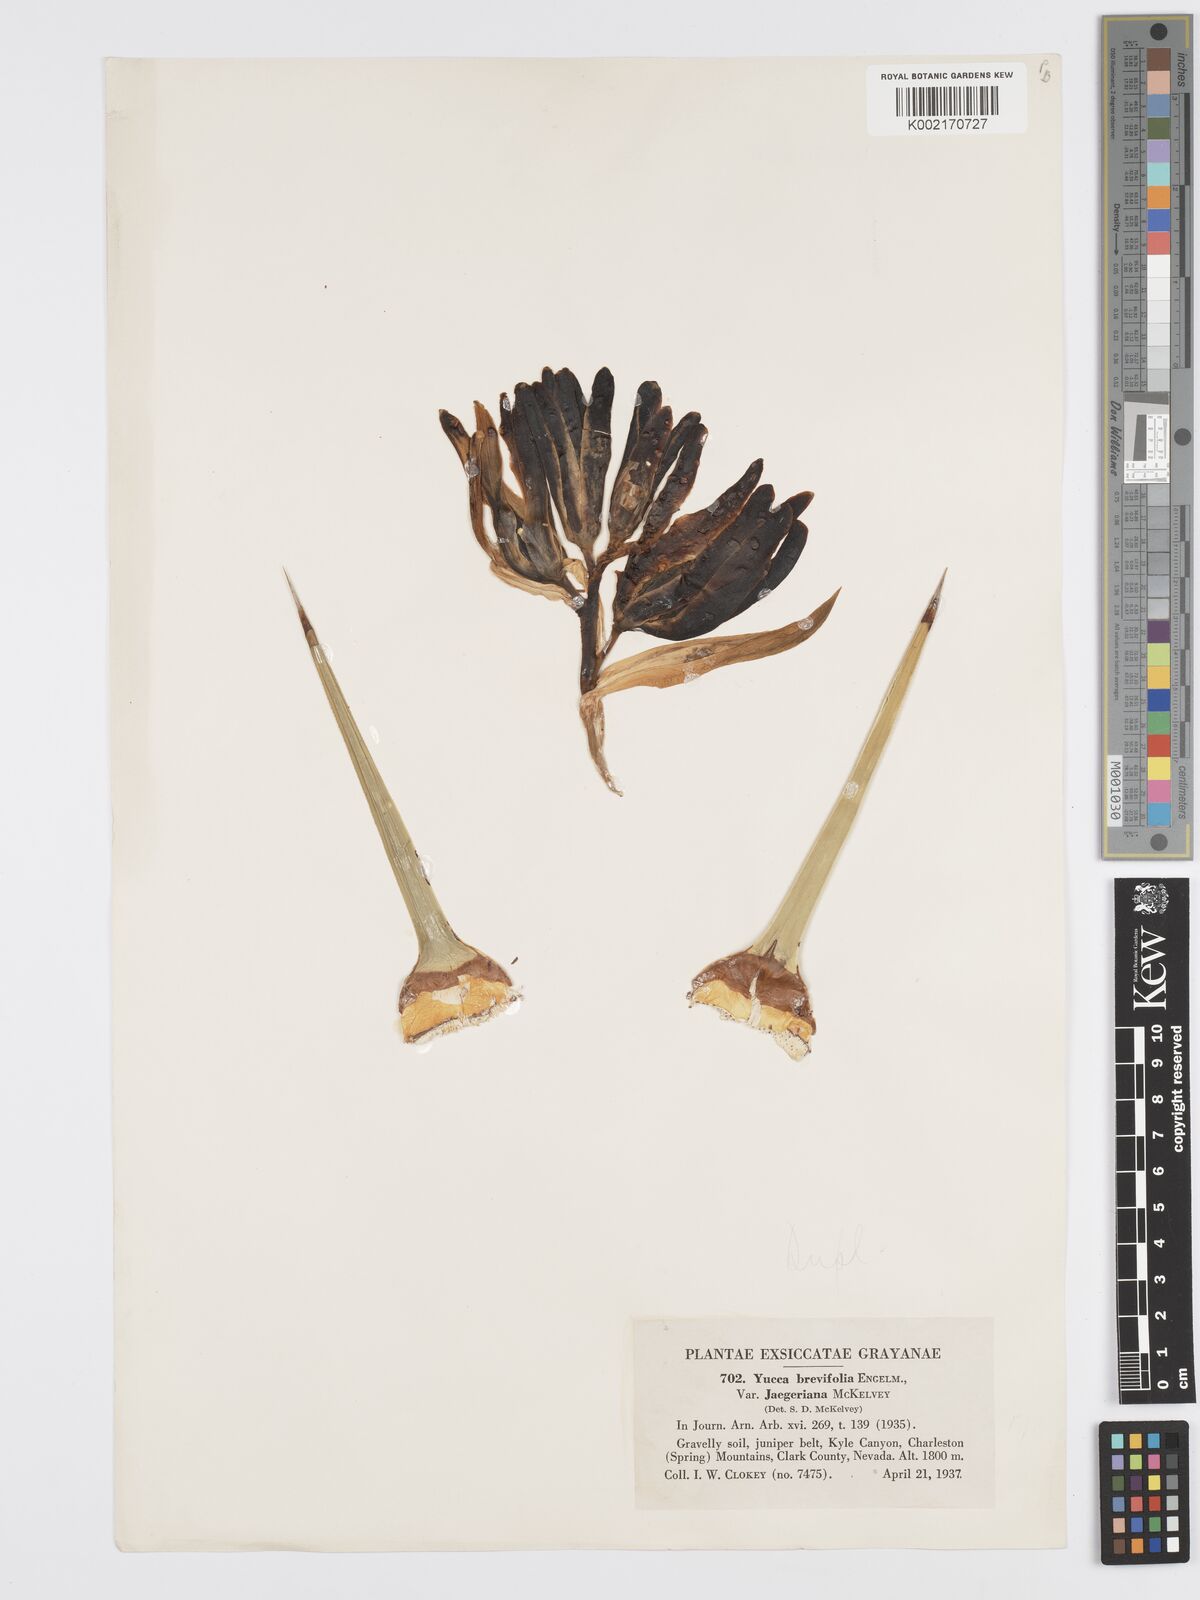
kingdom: Plantae
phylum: Tracheophyta
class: Liliopsida
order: Asparagales
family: Asparagaceae
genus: Yucca
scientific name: Yucca brevifolia
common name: Joshua tree
